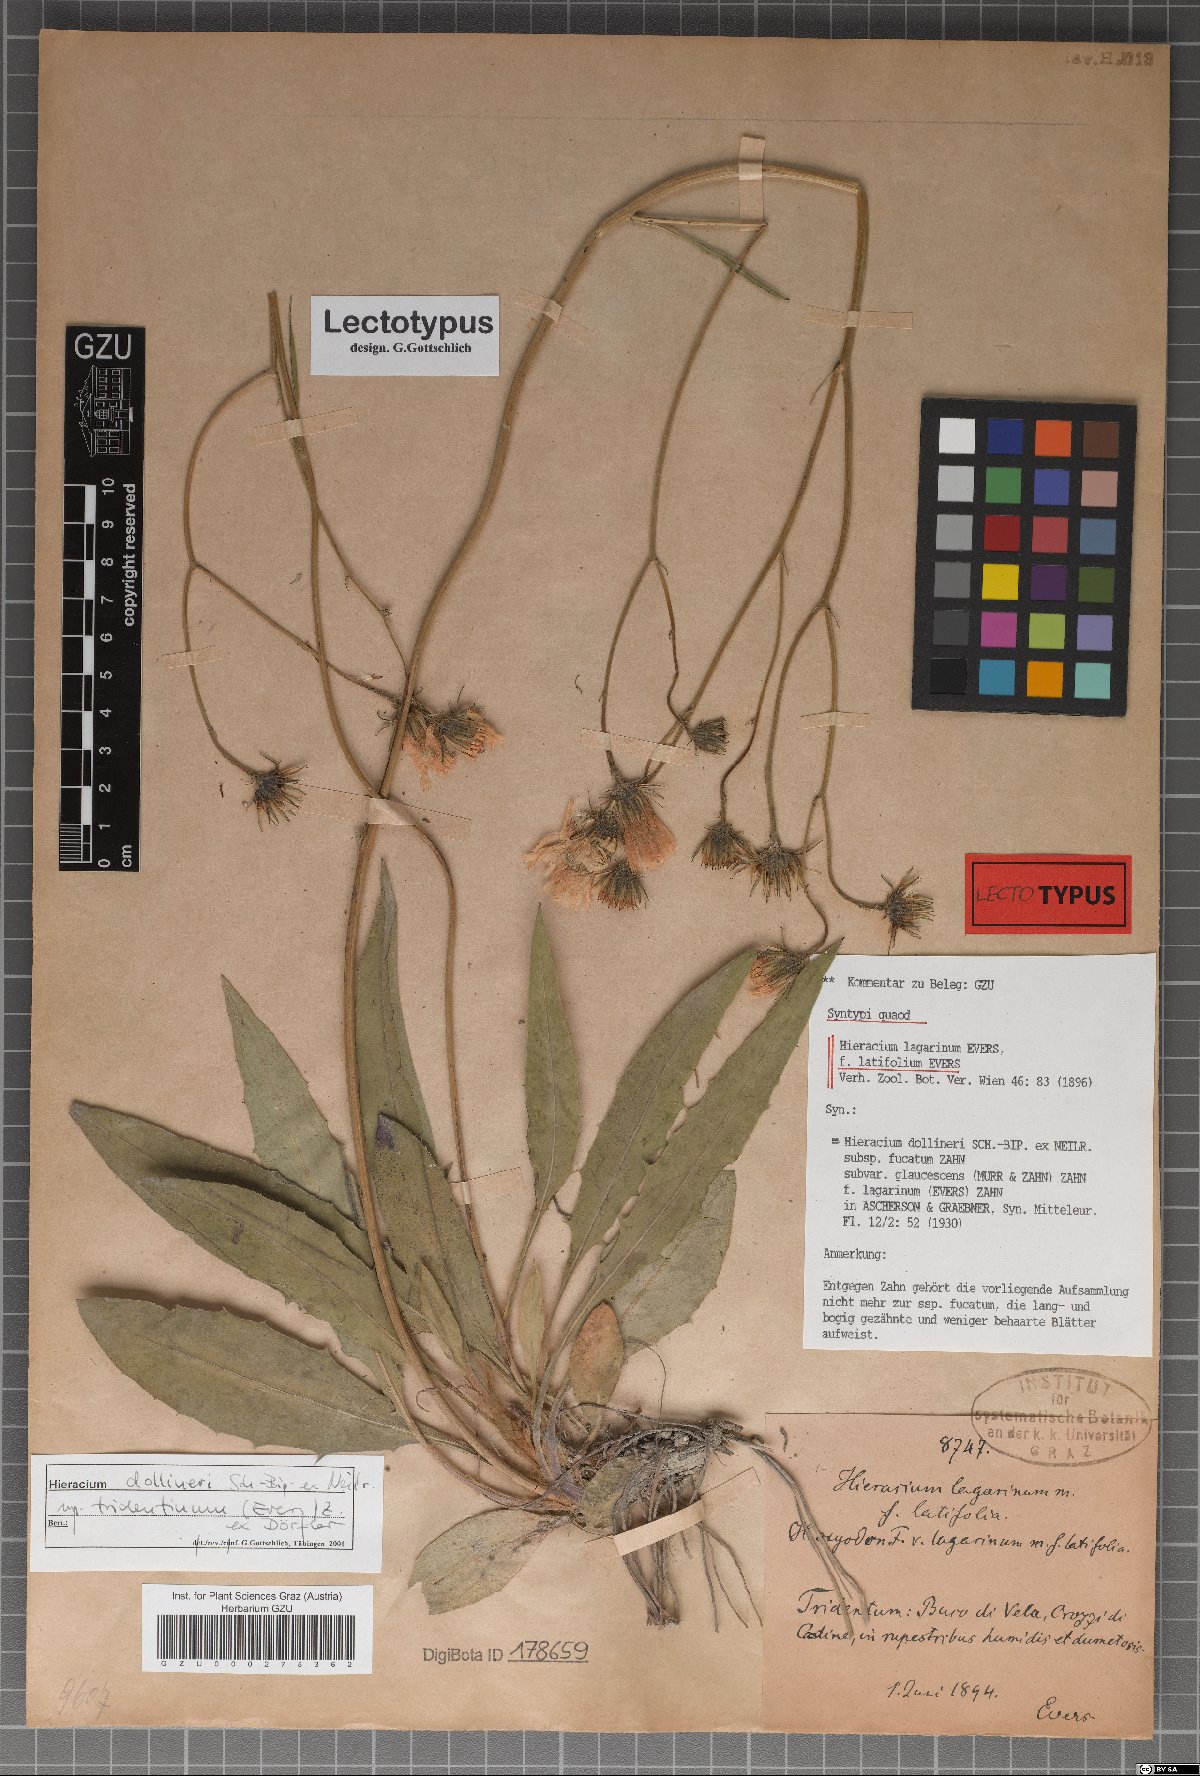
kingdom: Plantae
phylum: Tracheophyta
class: Magnoliopsida
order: Asterales
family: Asteraceae
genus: Hieracium
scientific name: Hieracium dollineri
